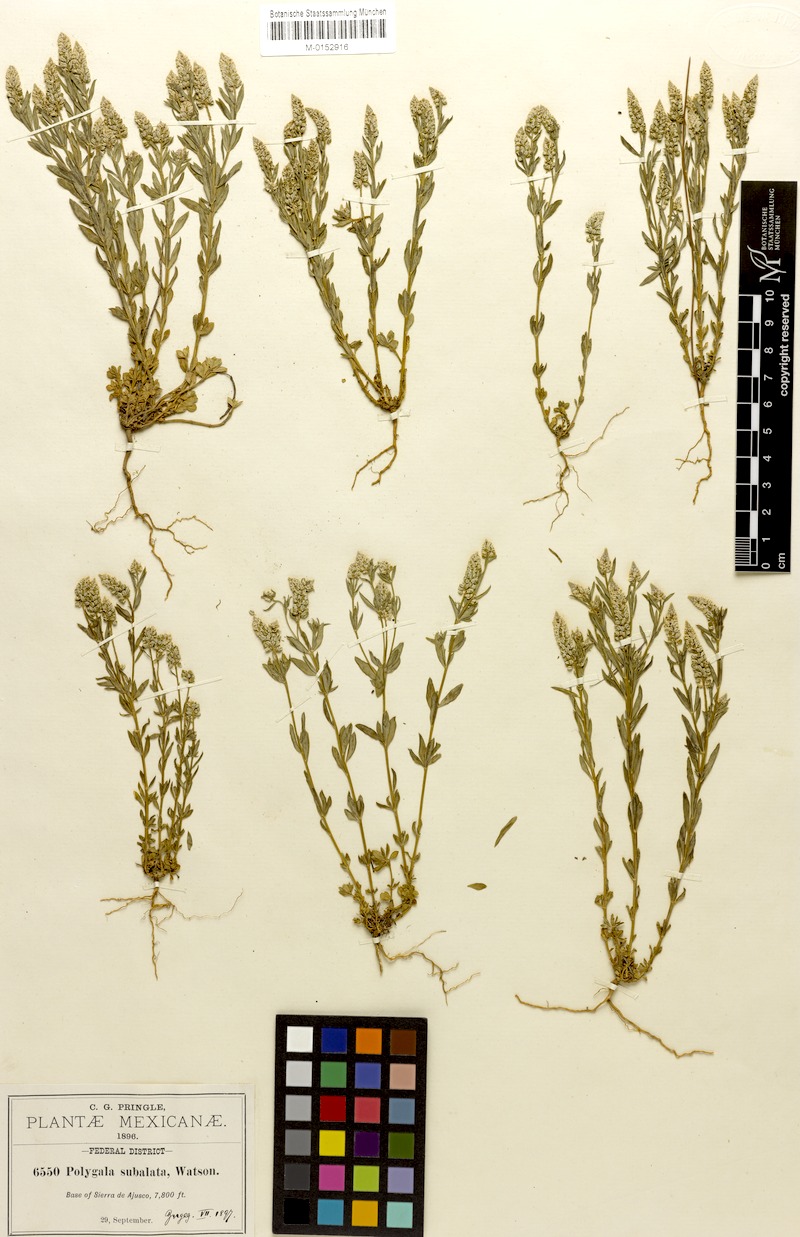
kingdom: Plantae
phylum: Tracheophyta
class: Magnoliopsida
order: Fabales
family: Polygalaceae
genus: Polygala
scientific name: Polygala subalata
